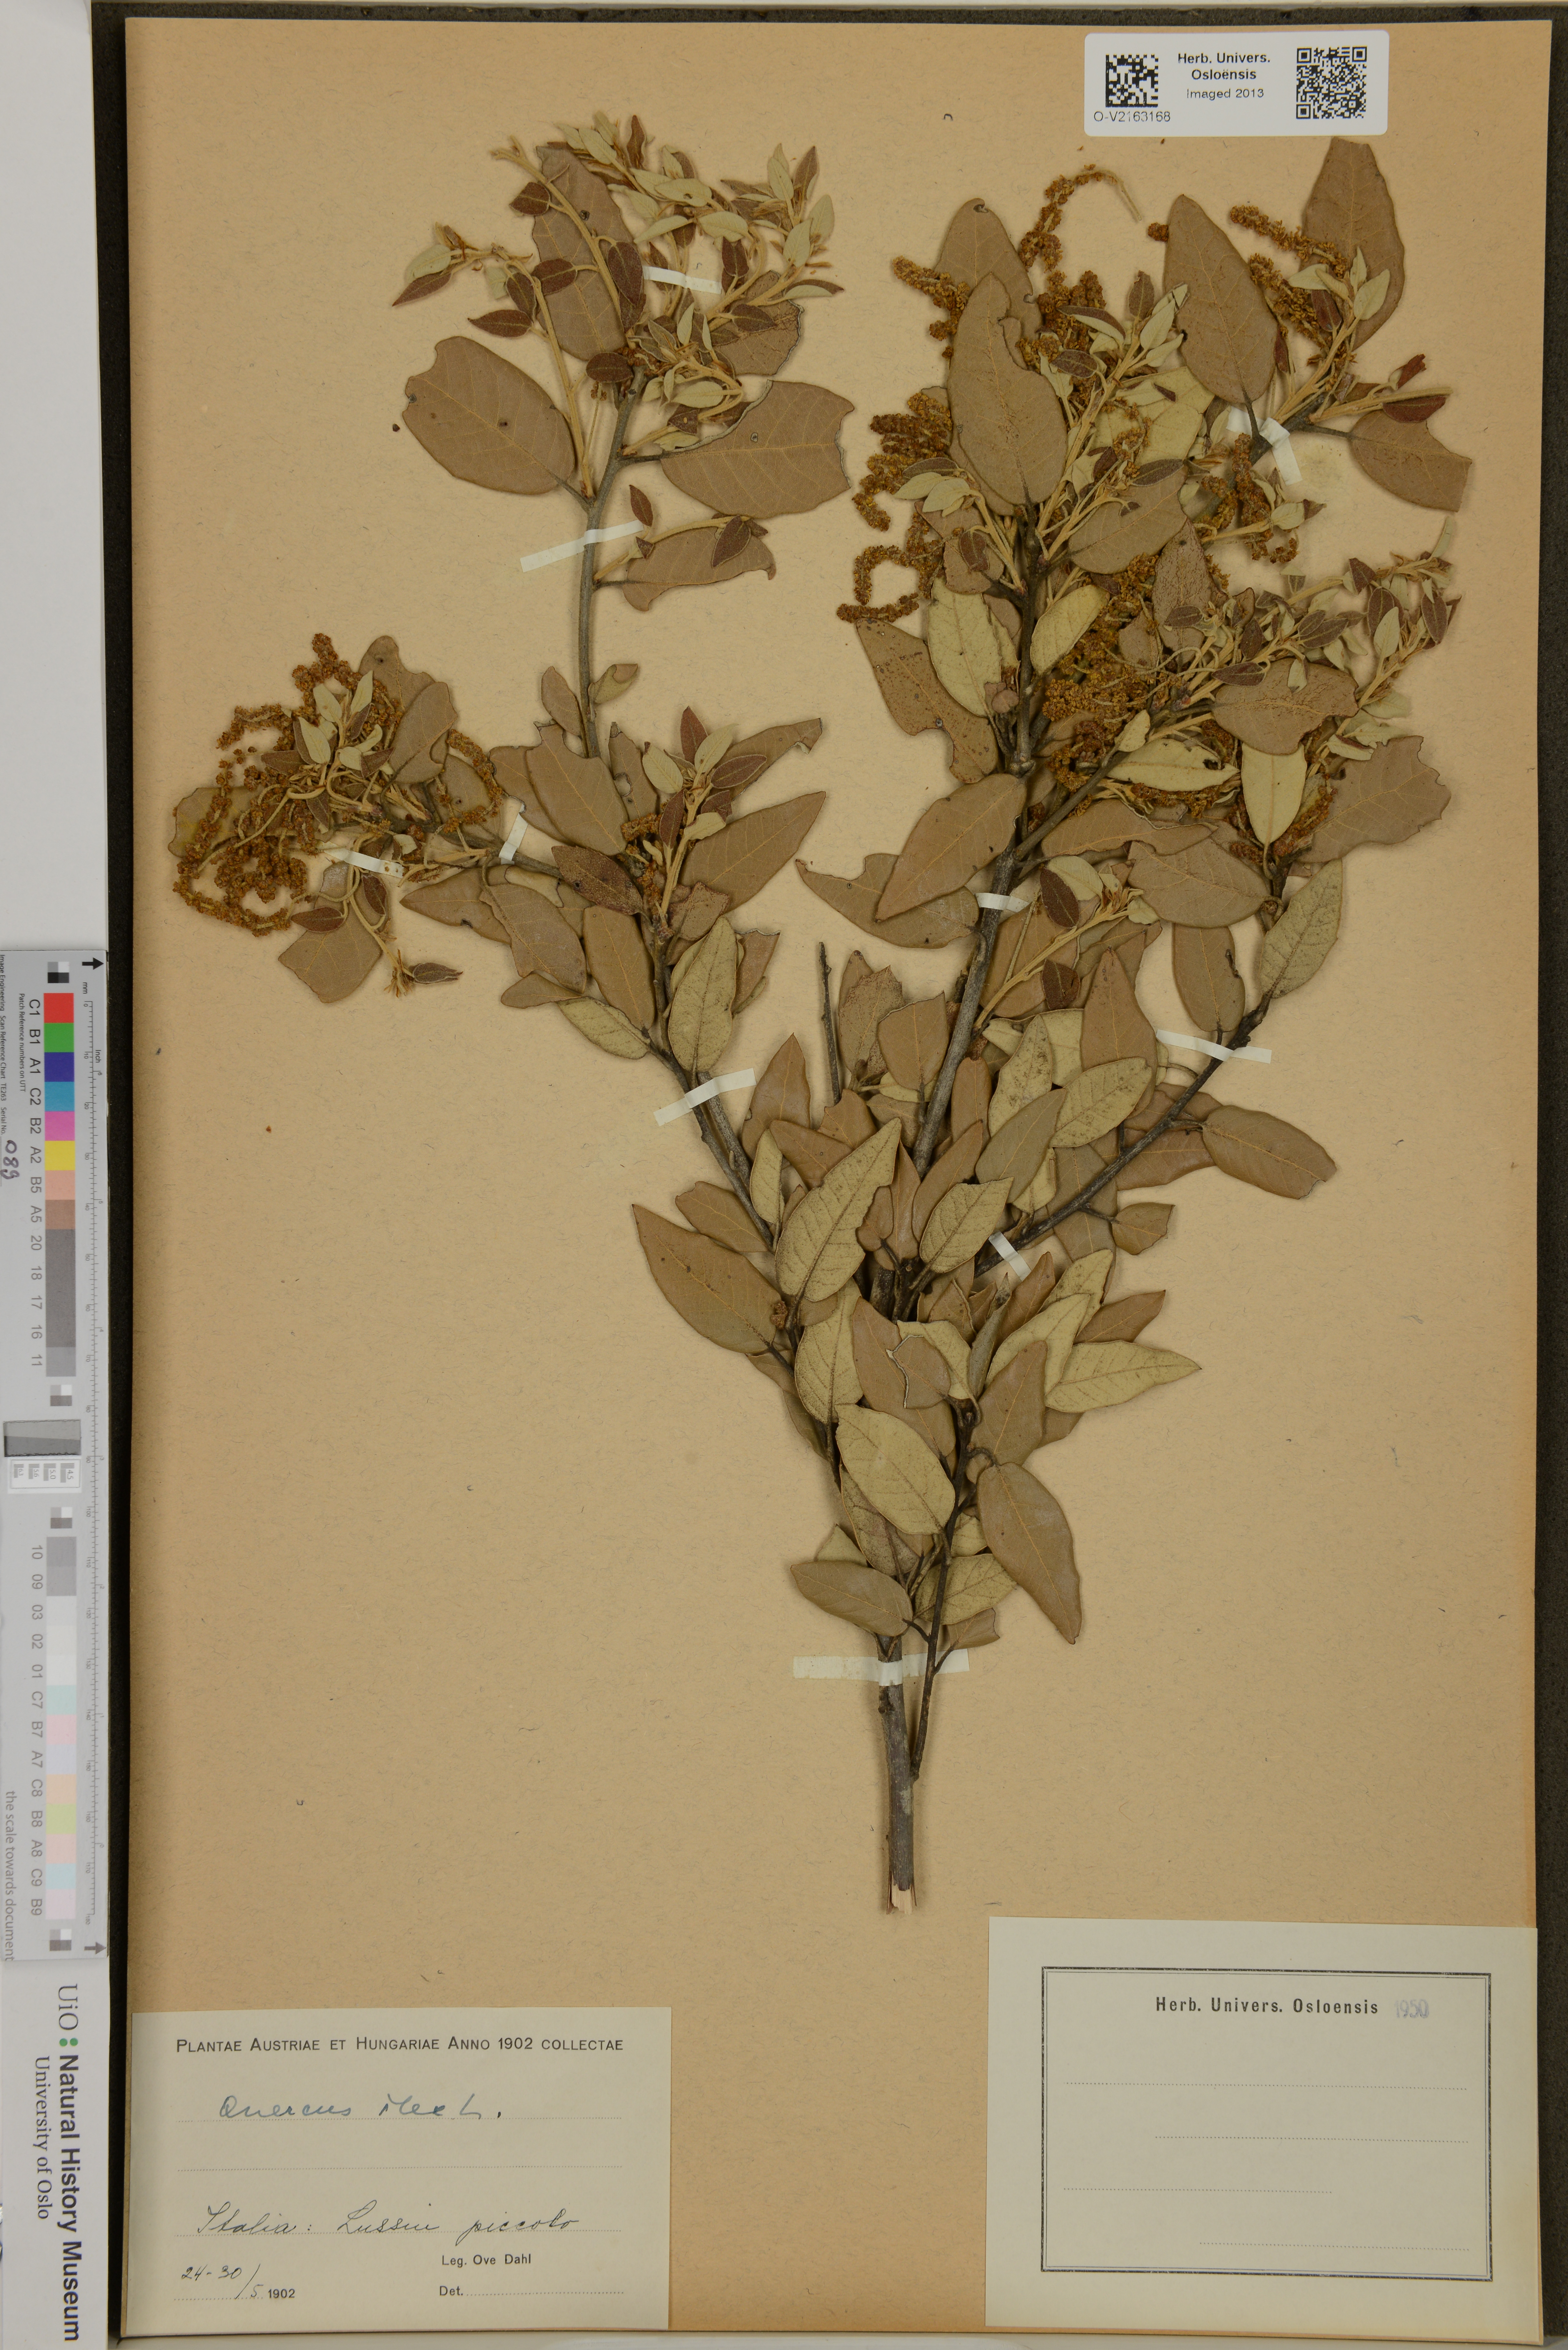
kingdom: Plantae
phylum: Tracheophyta
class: Magnoliopsida
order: Fagales
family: Fagaceae
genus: Quercus
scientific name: Quercus ilex
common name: Evergreen oak
